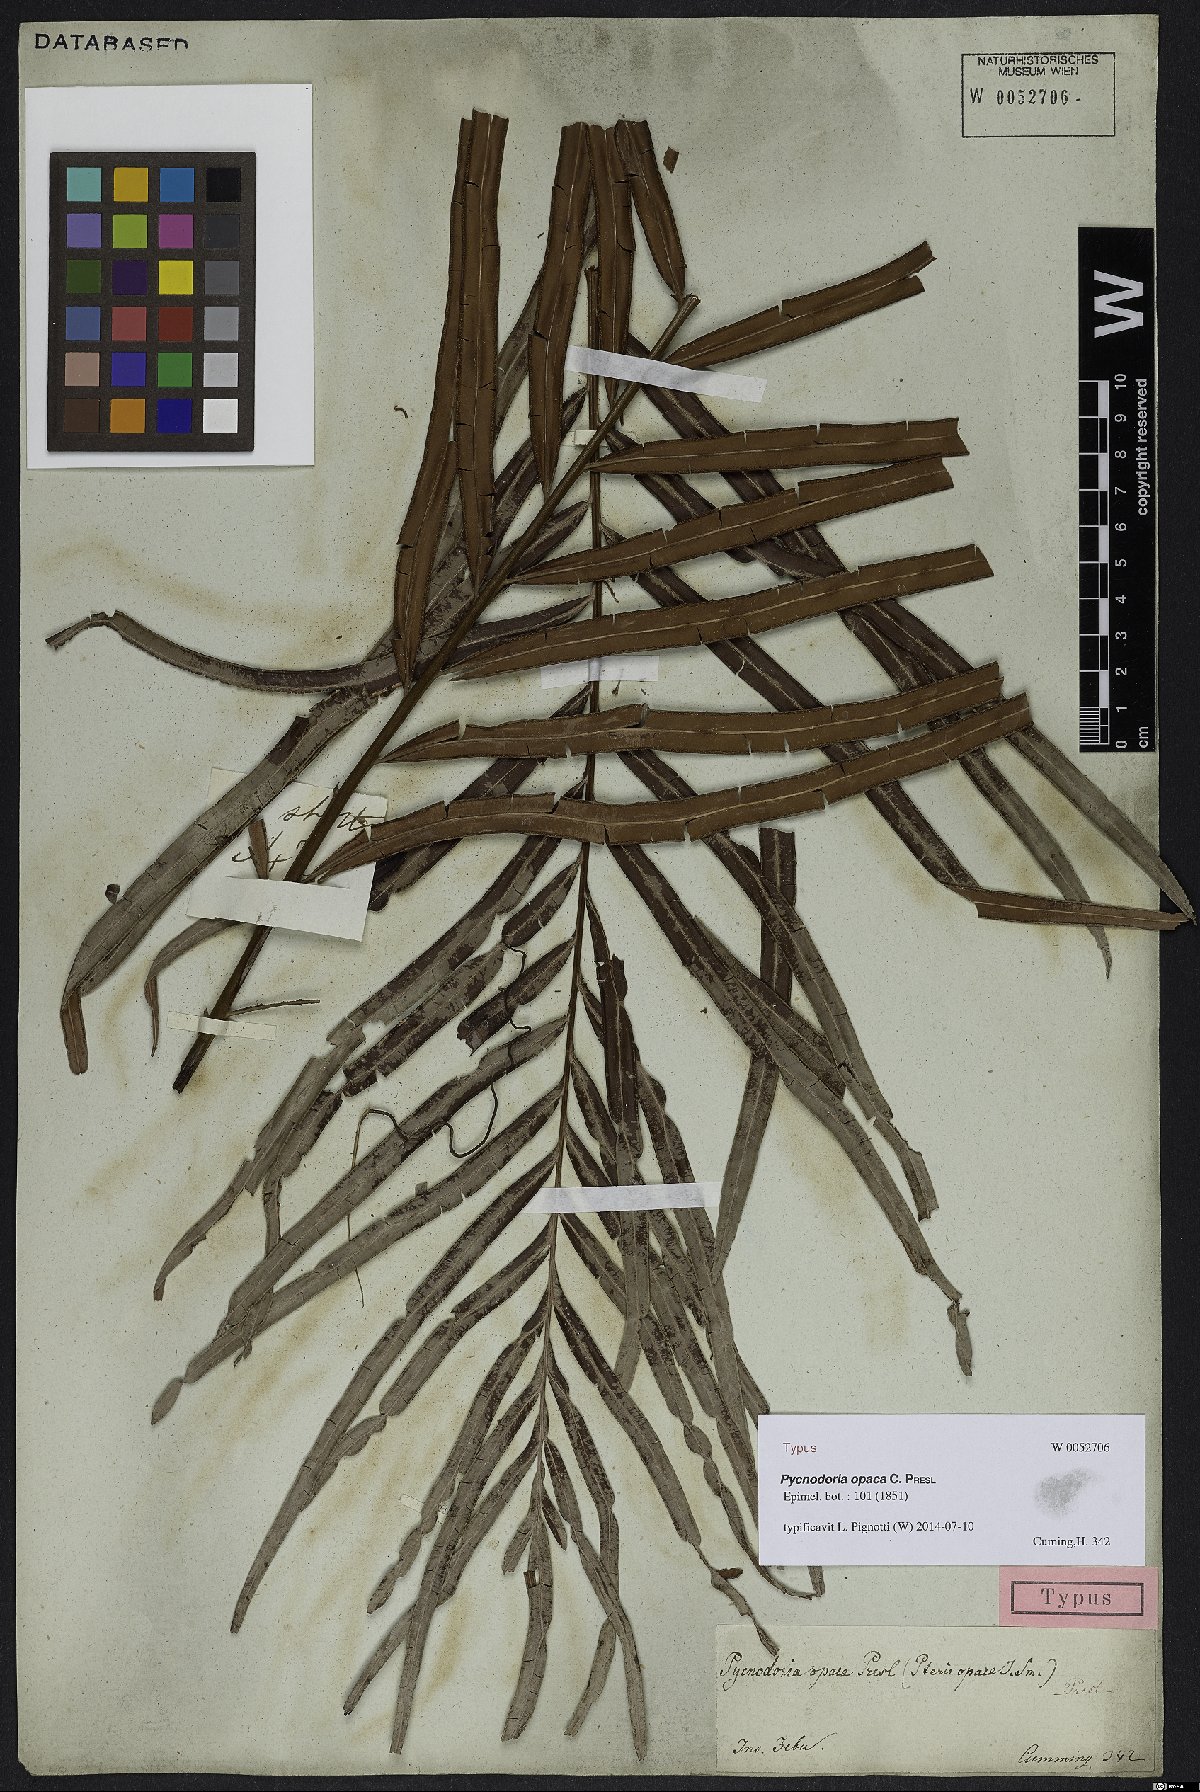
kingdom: Plantae
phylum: Tracheophyta
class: Polypodiopsida
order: Polypodiales
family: Pteridaceae
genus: Pteris
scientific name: Pteris papuana
